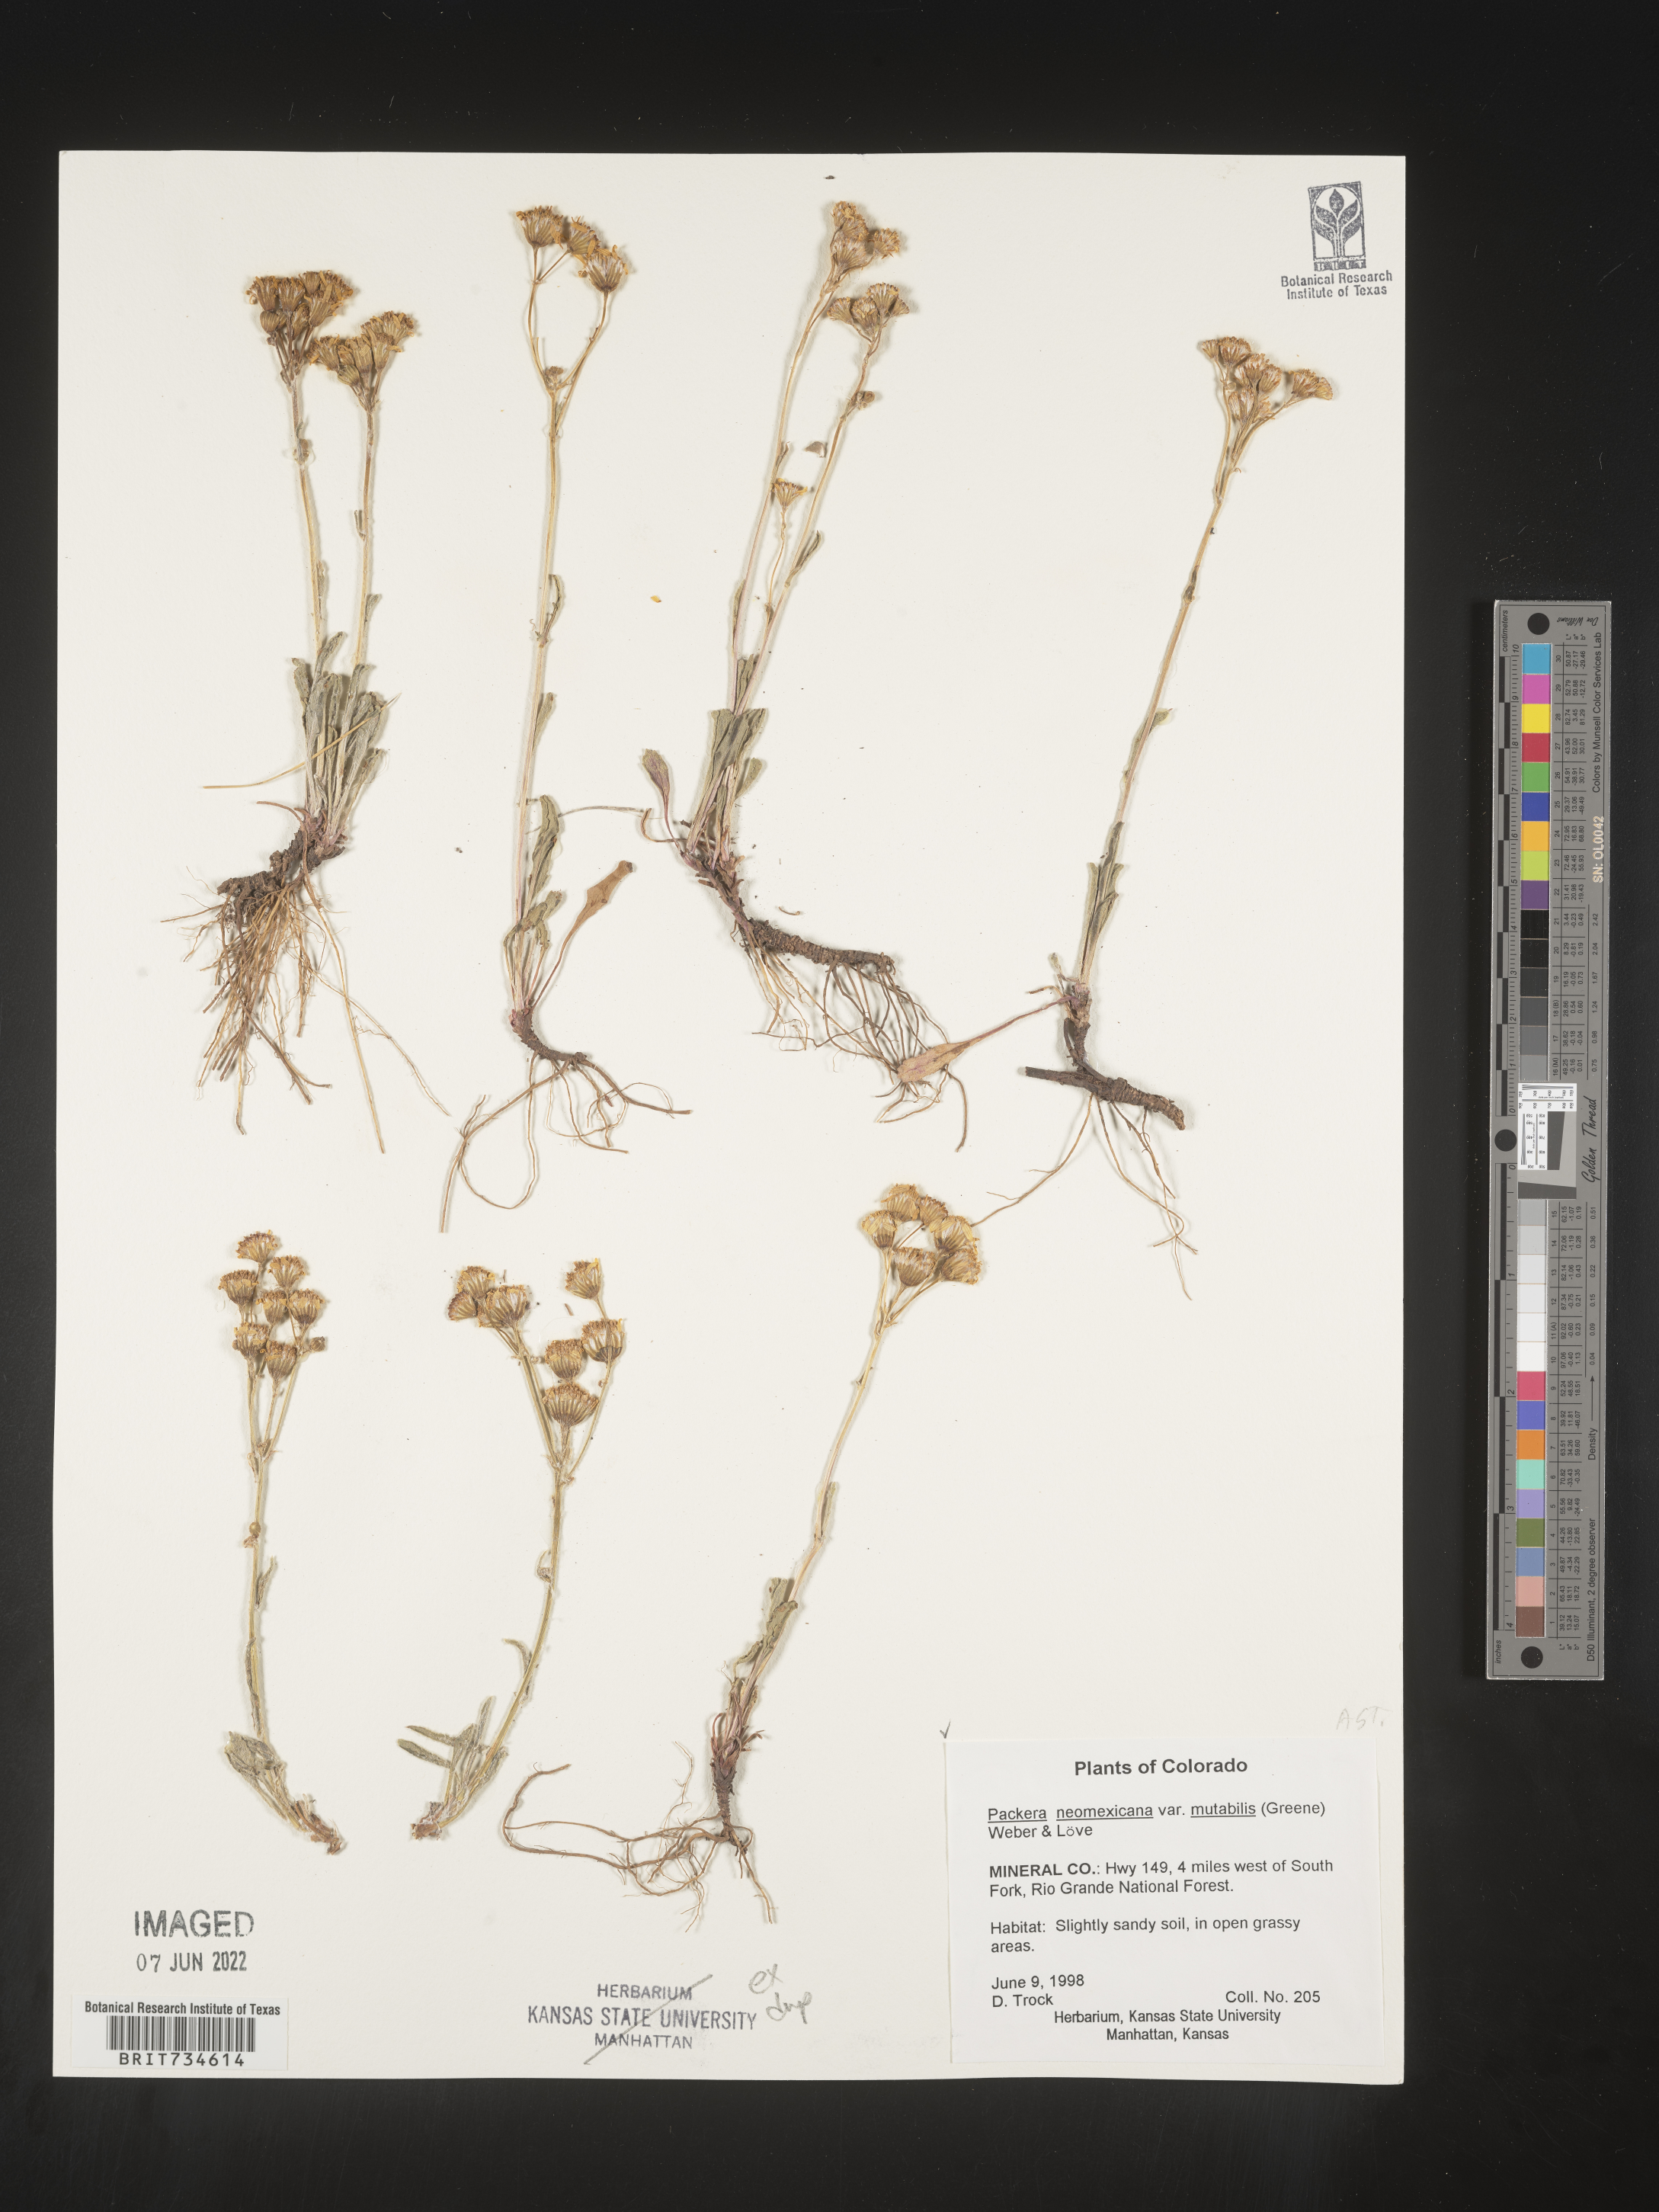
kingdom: Plantae
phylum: Tracheophyta
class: Magnoliopsida
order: Asterales
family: Asteraceae
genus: Packera
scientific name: Packera neomexicana
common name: New mexico butterweed
